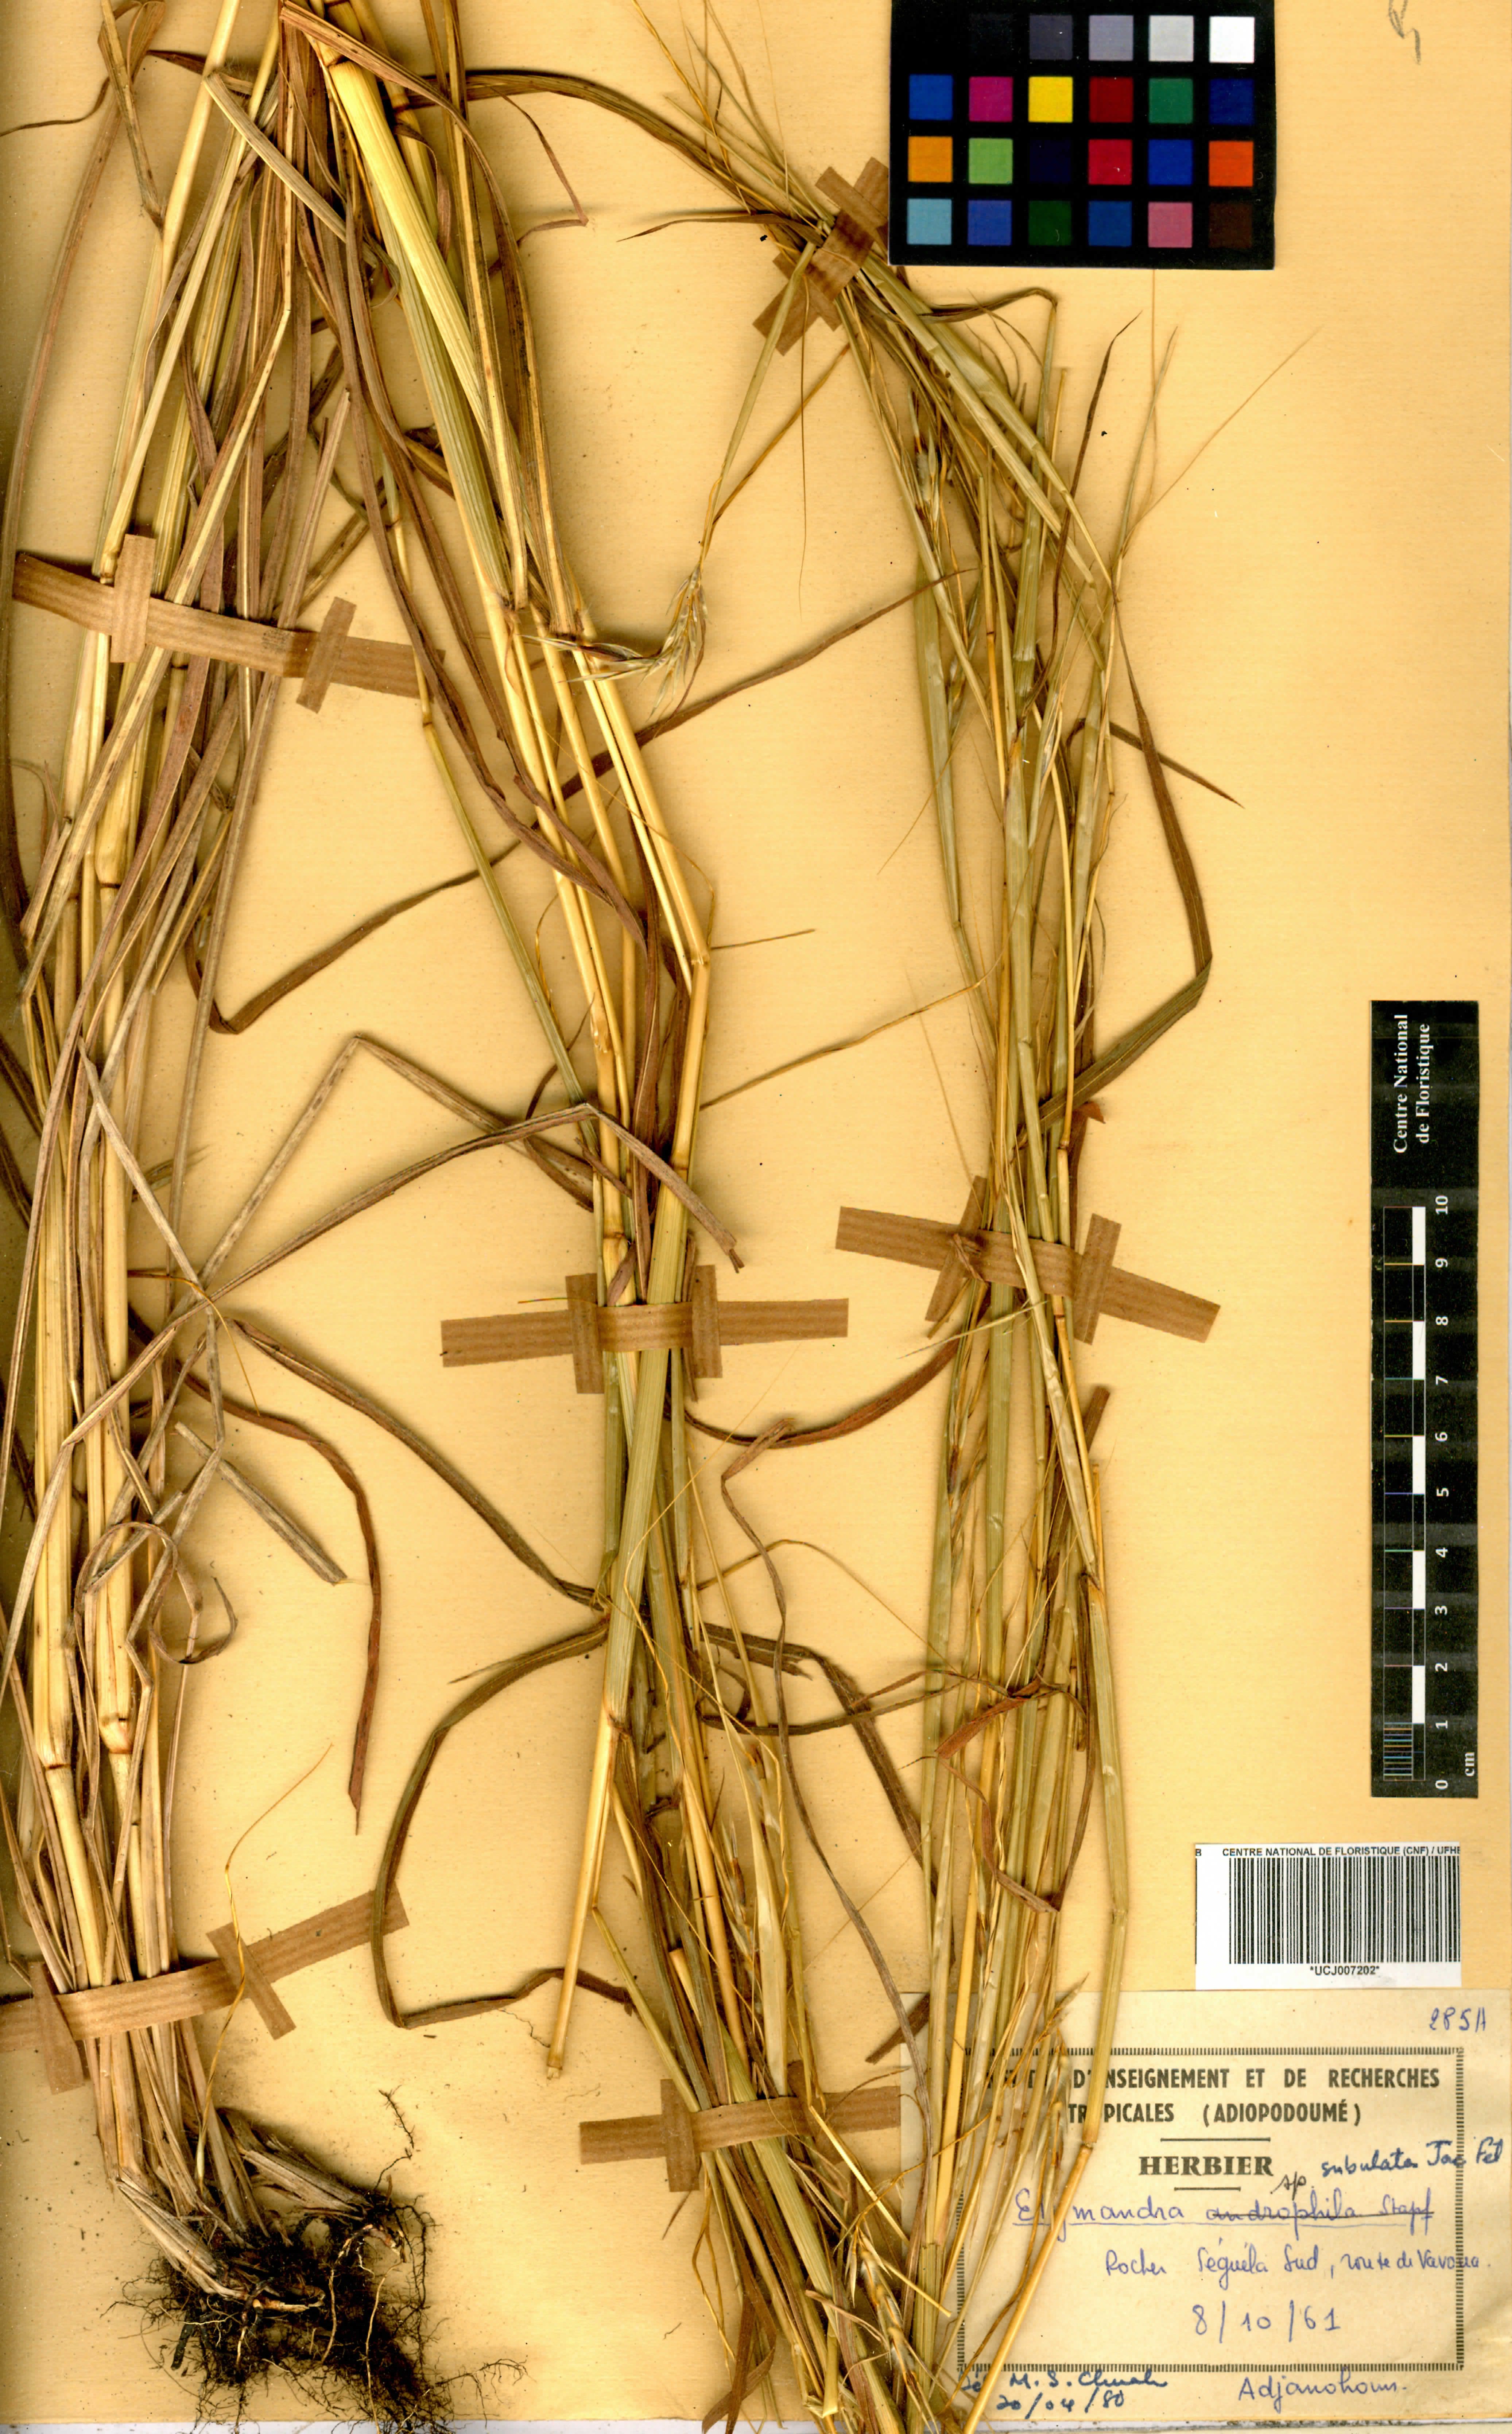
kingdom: Plantae
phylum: Tracheophyta
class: Liliopsida
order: Poales
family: Poaceae
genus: Elymandra
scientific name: Elymandra
